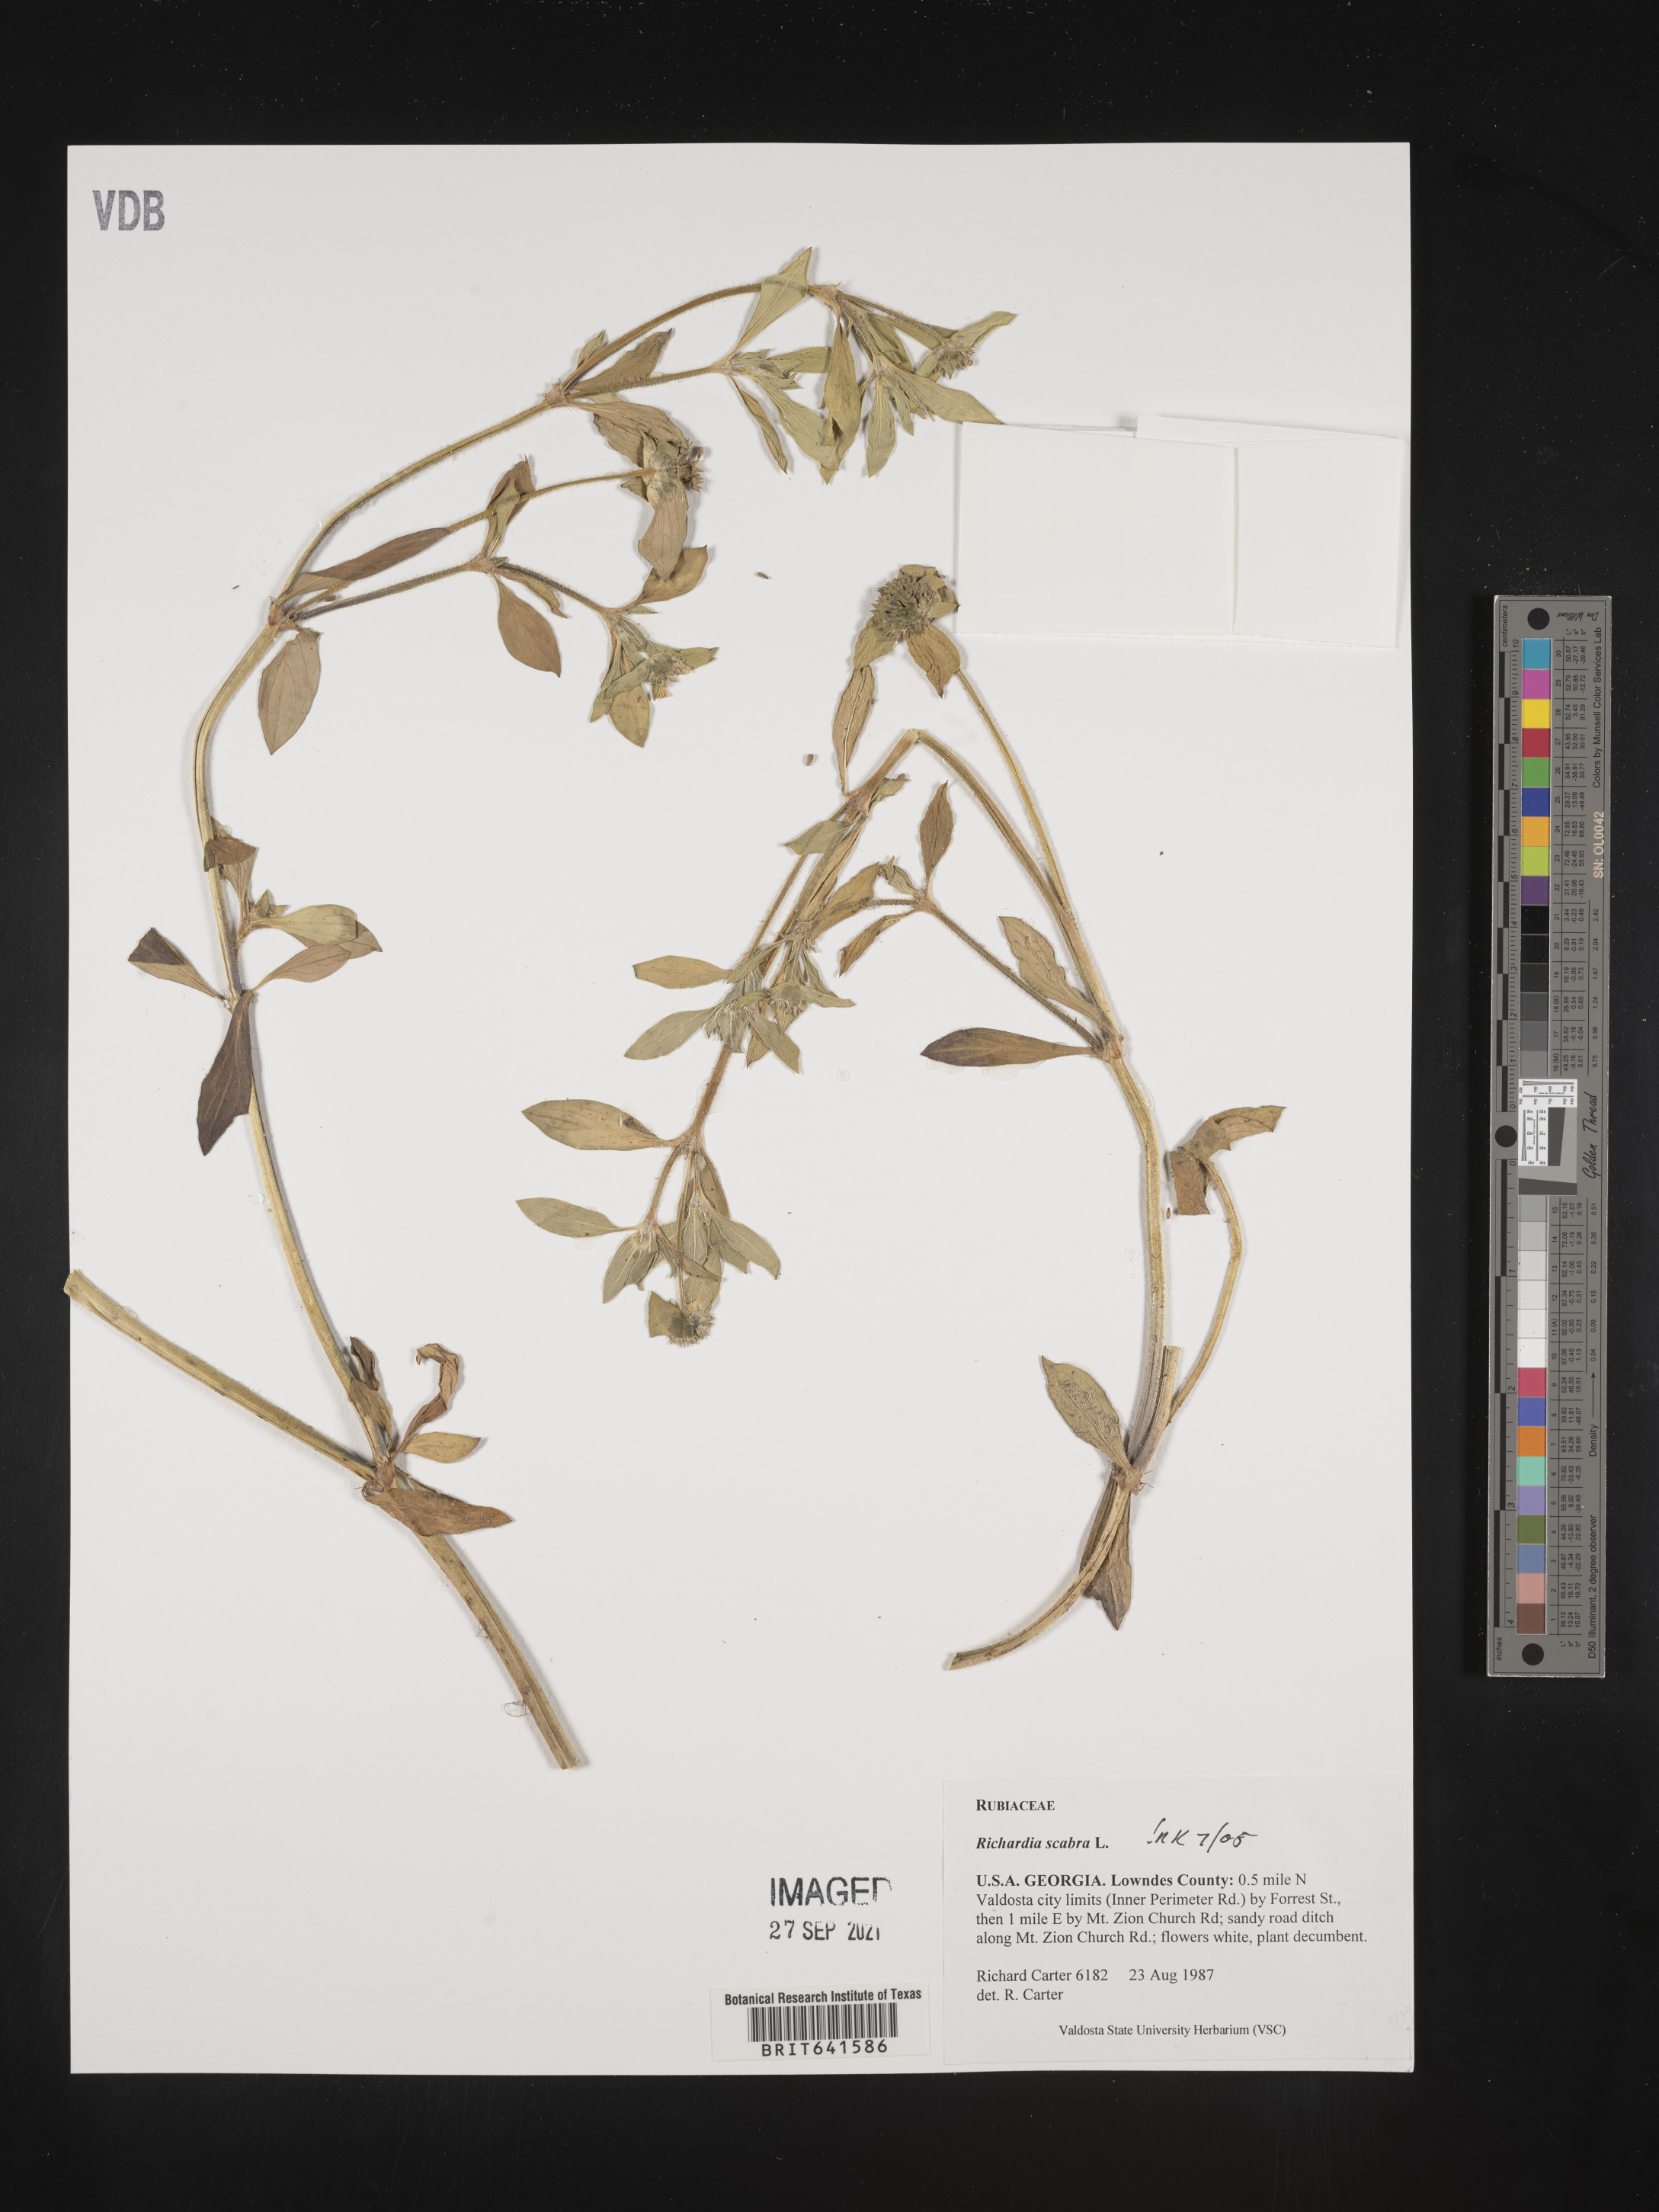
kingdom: Plantae
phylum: Tracheophyta
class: Magnoliopsida
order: Gentianales
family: Rubiaceae
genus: Richardia
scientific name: Richardia scabra
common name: Rough mexican clover
